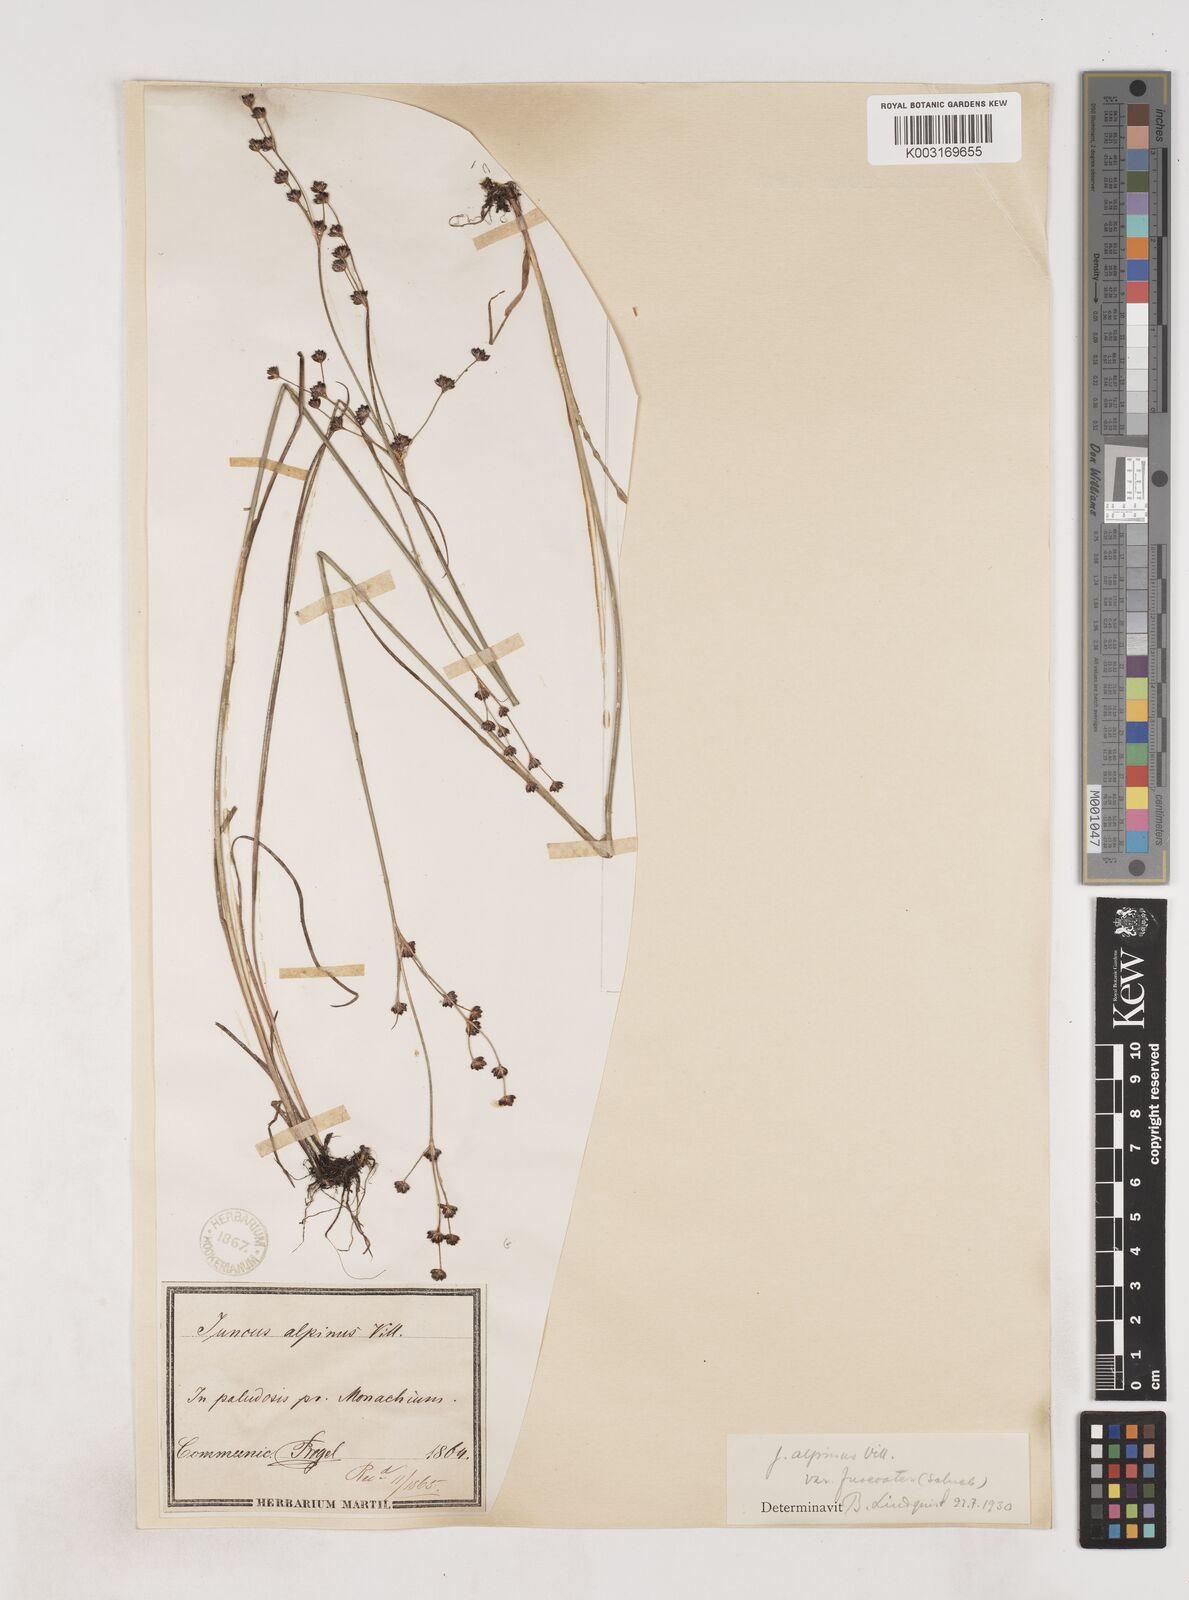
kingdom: Plantae
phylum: Tracheophyta
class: Liliopsida
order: Poales
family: Juncaceae
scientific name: Juncaceae
